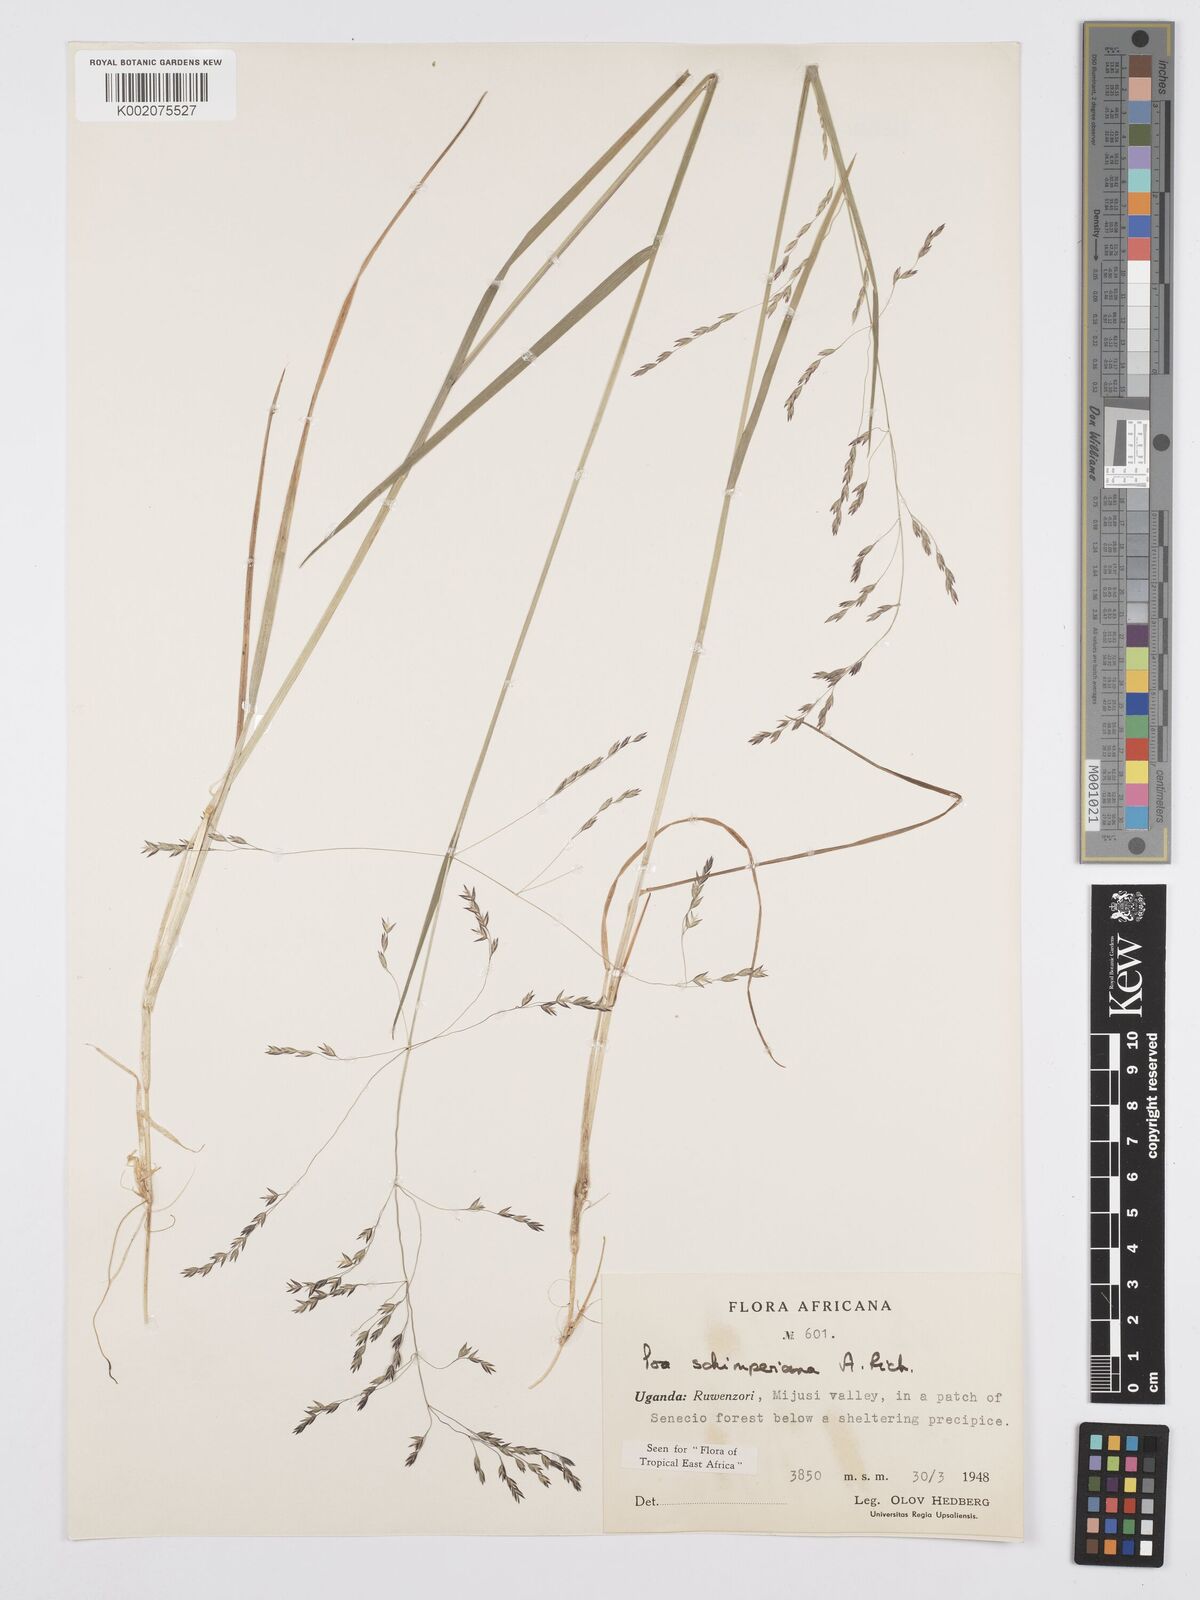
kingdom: Plantae
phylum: Tracheophyta
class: Liliopsida
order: Poales
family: Poaceae
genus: Poa
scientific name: Poa schimperiana
